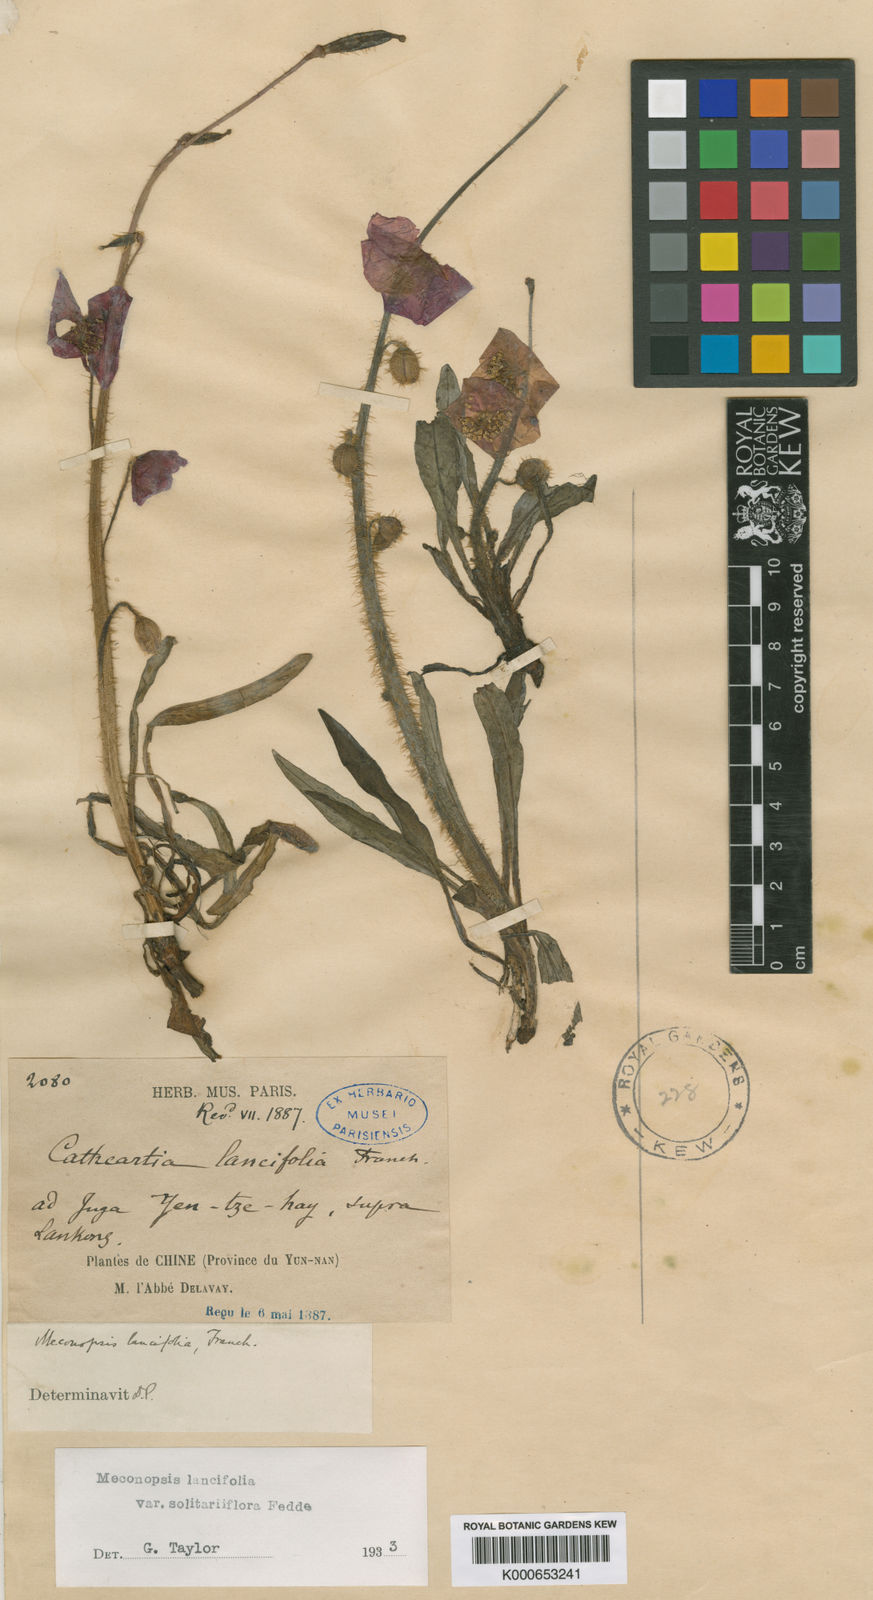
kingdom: Plantae
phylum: Tracheophyta
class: Magnoliopsida
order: Ranunculales
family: Papaveraceae
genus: Meconopsis
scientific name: Meconopsis lancifolia
